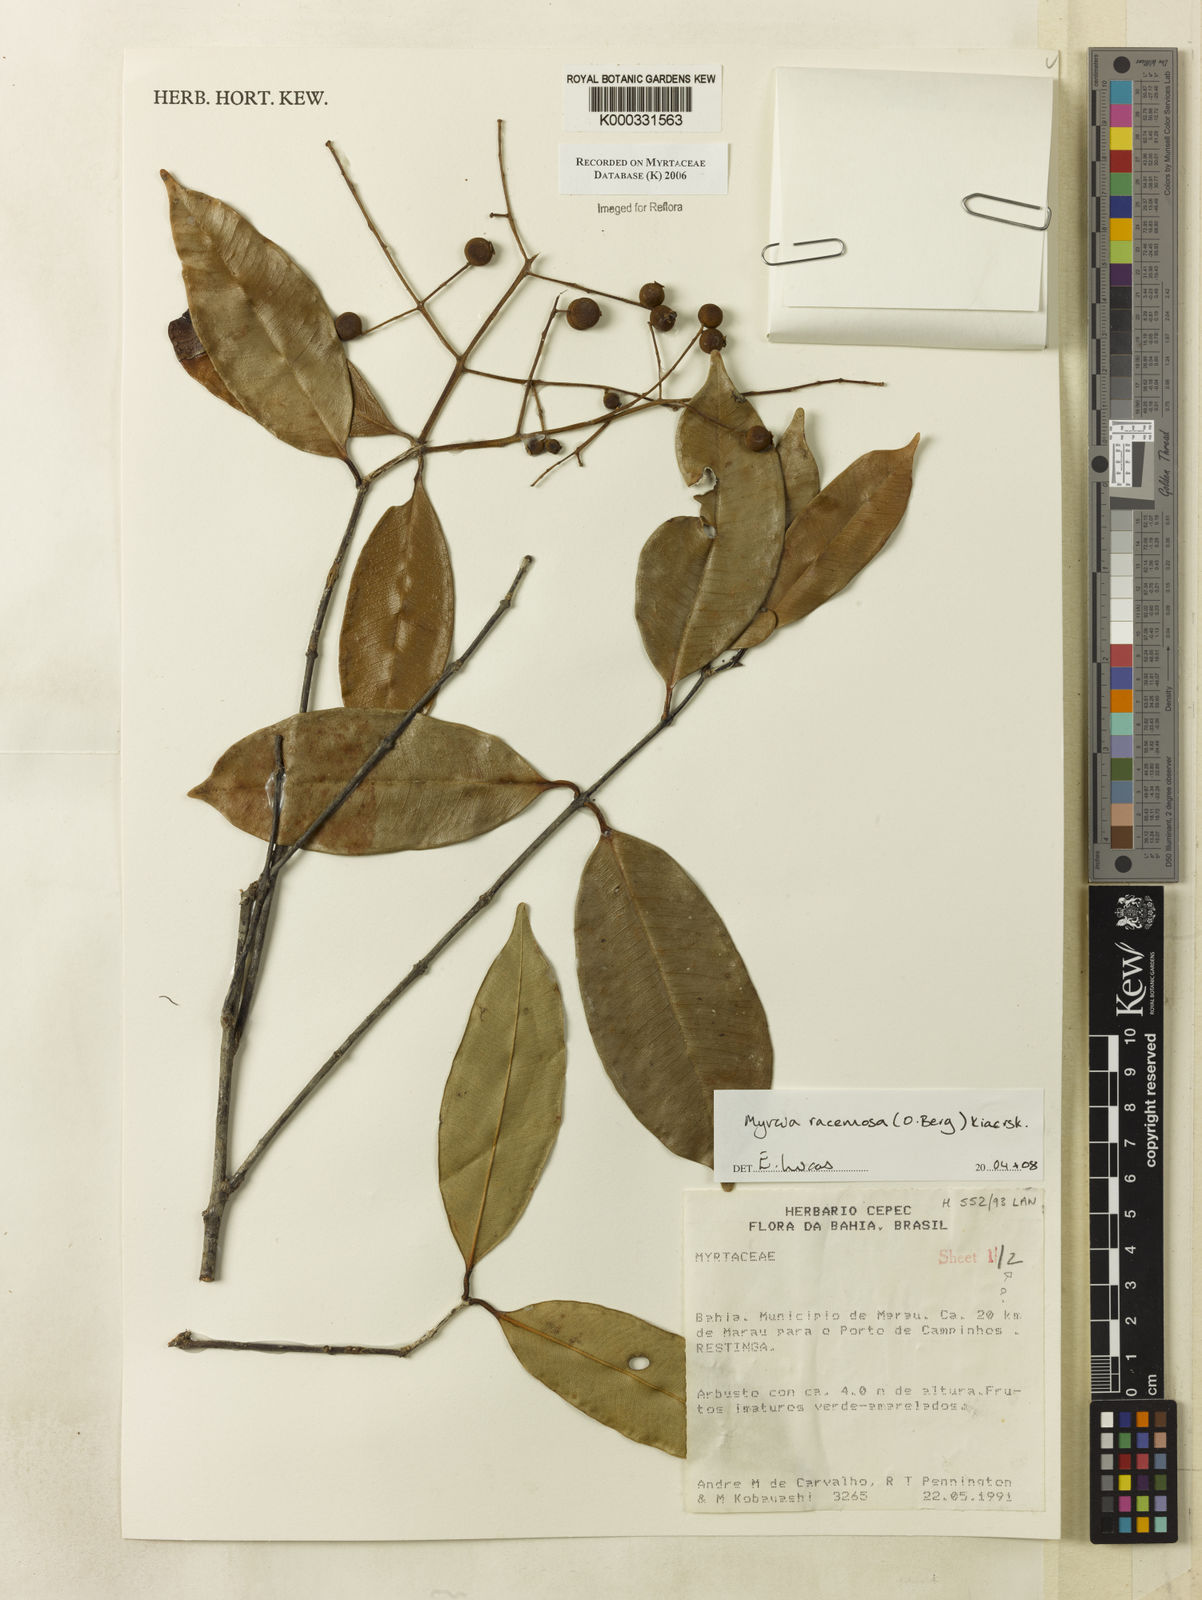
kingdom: Plantae
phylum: Tracheophyta
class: Magnoliopsida
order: Myrtales
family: Myrtaceae
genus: Myrcia
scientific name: Myrcia
